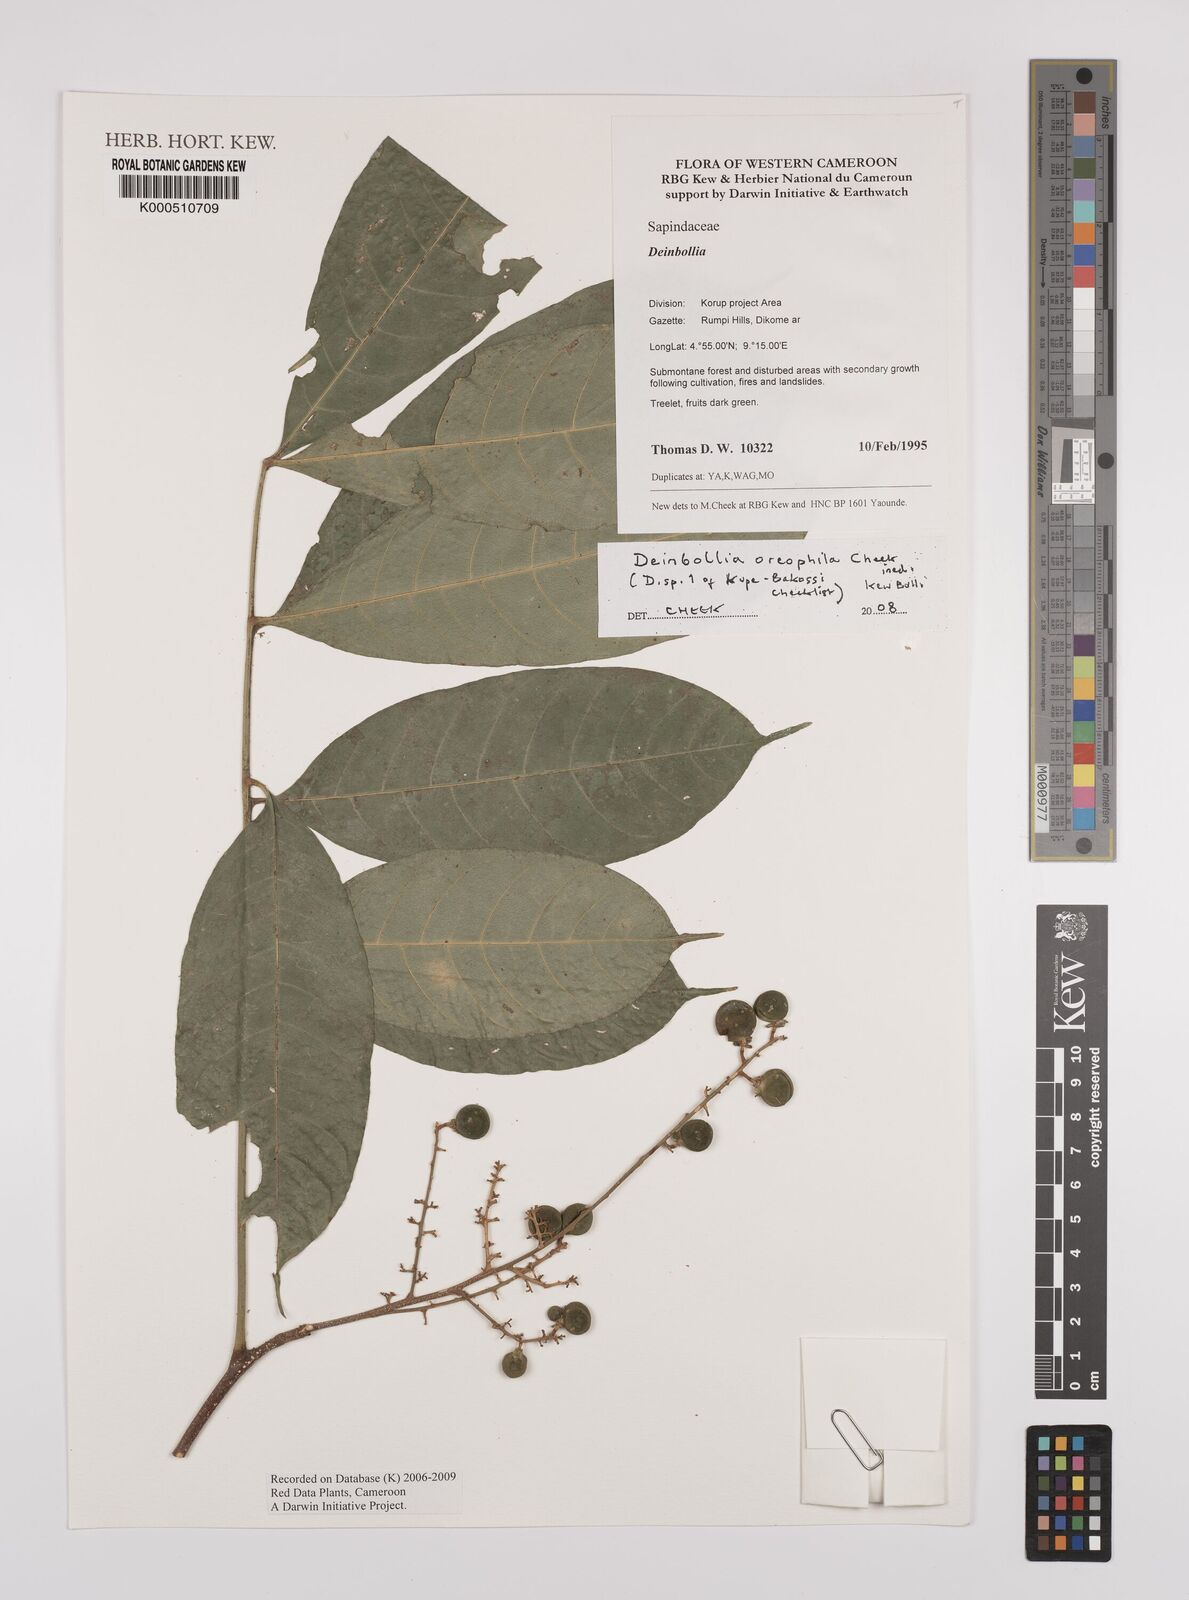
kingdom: Plantae
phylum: Tracheophyta
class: Magnoliopsida
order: Sapindales
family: Sapindaceae
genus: Deinbollia
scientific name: Deinbollia oreophila
